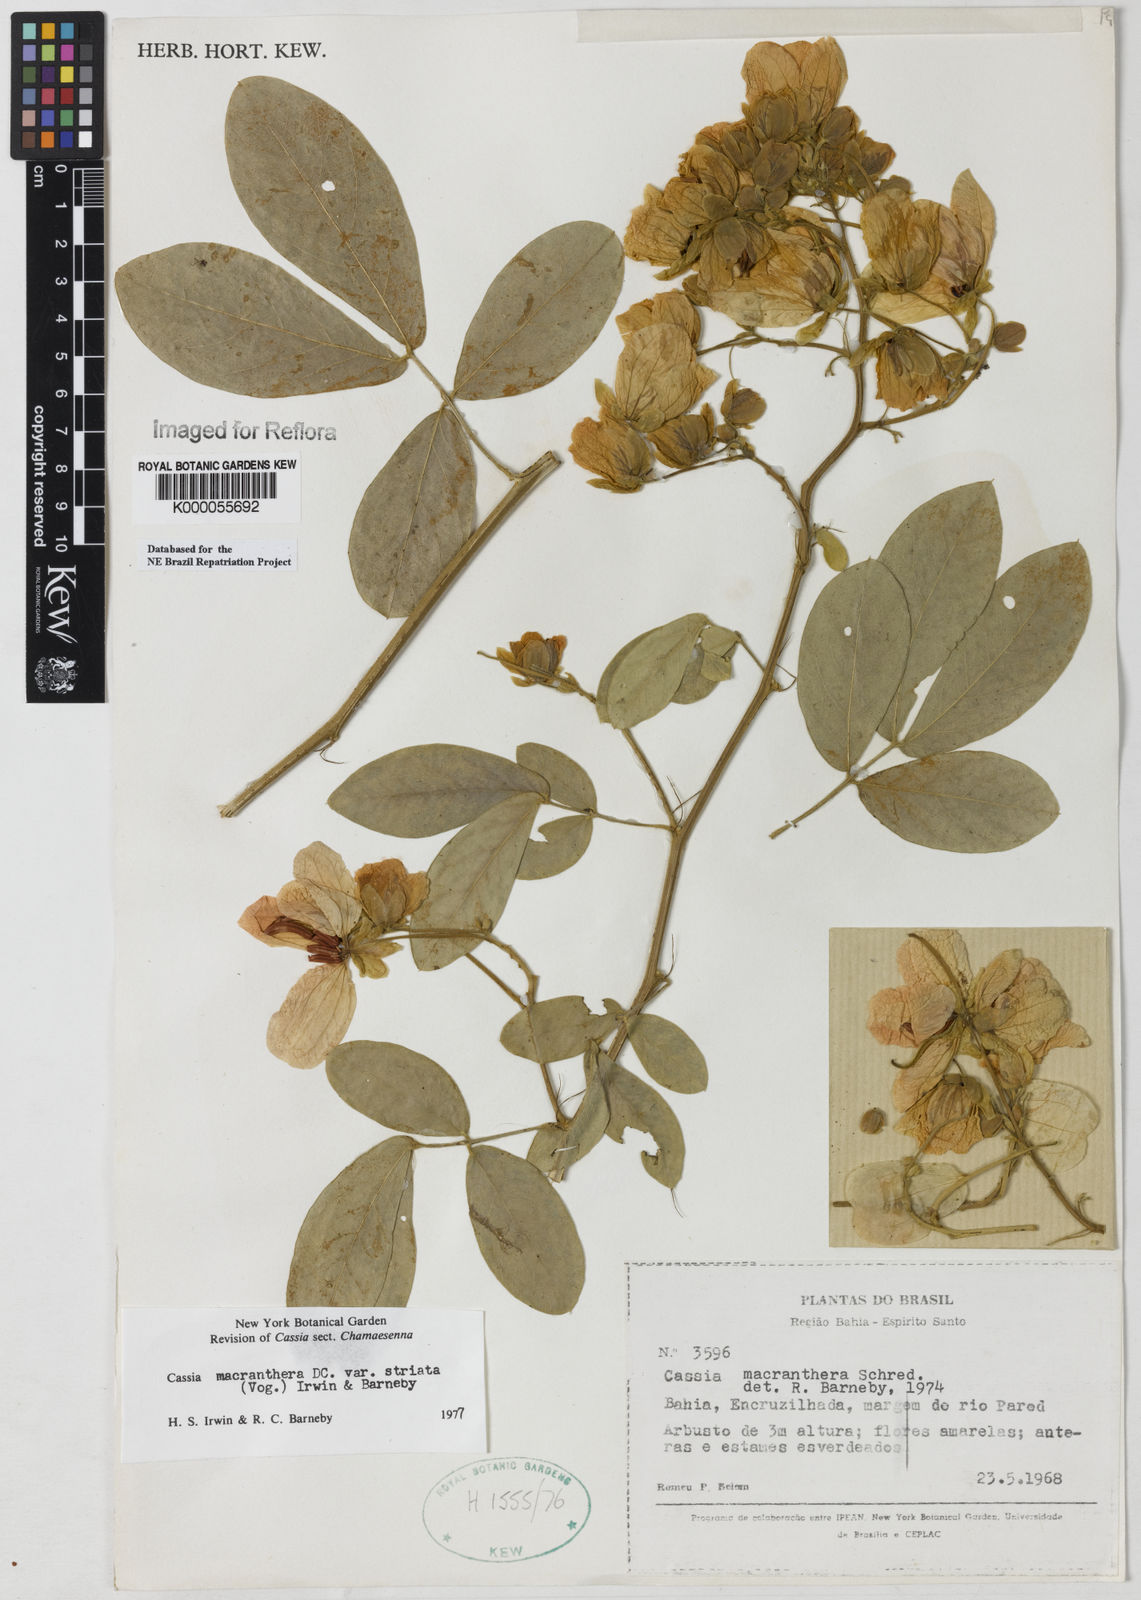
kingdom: Plantae
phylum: Tracheophyta
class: Magnoliopsida
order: Fabales
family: Fabaceae
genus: Senna
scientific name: Senna macranthera
